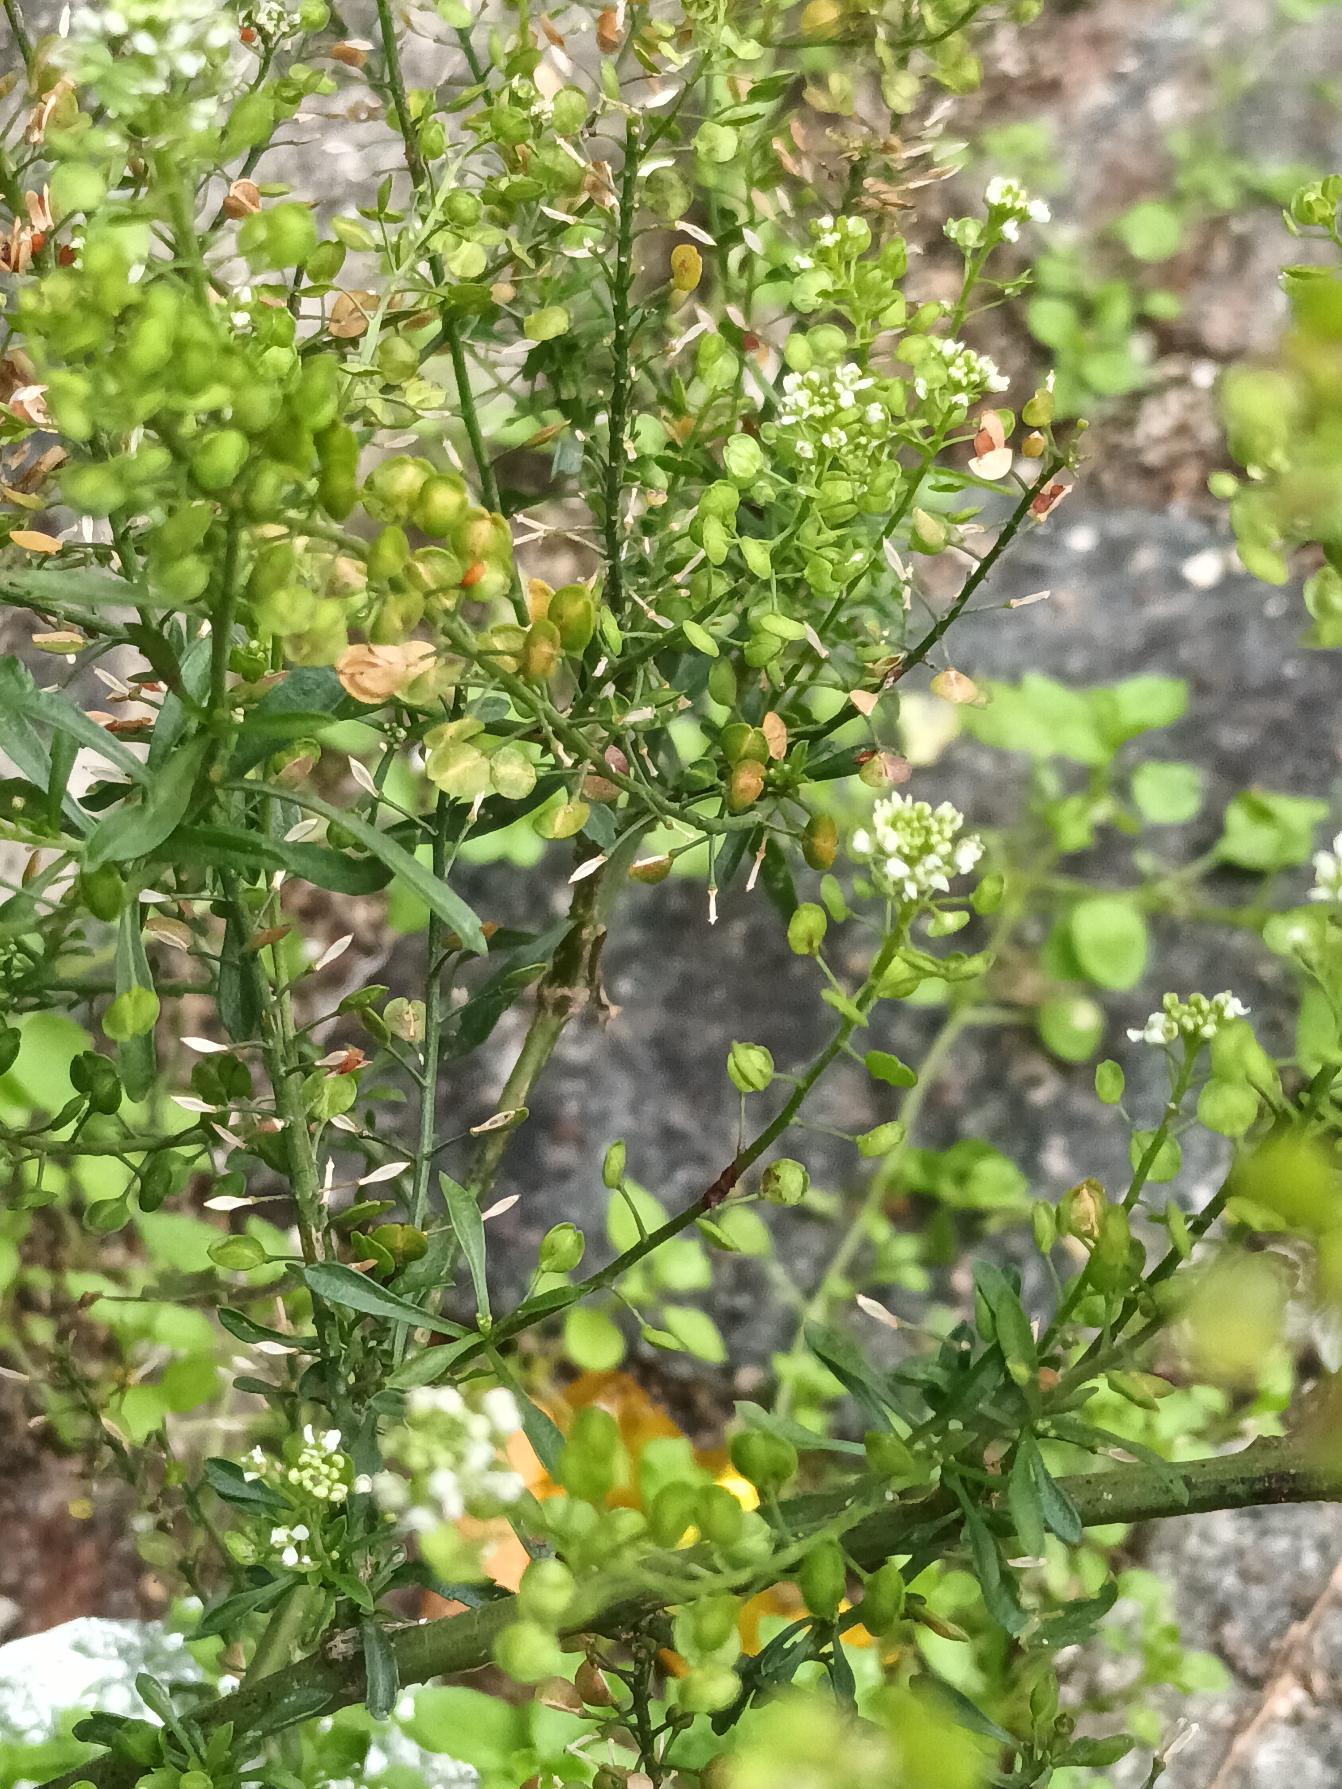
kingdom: Plantae
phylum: Tracheophyta
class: Magnoliopsida
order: Brassicales
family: Brassicaceae
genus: Lepidium
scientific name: Lepidium densiflorum
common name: Vingefrøet karse
